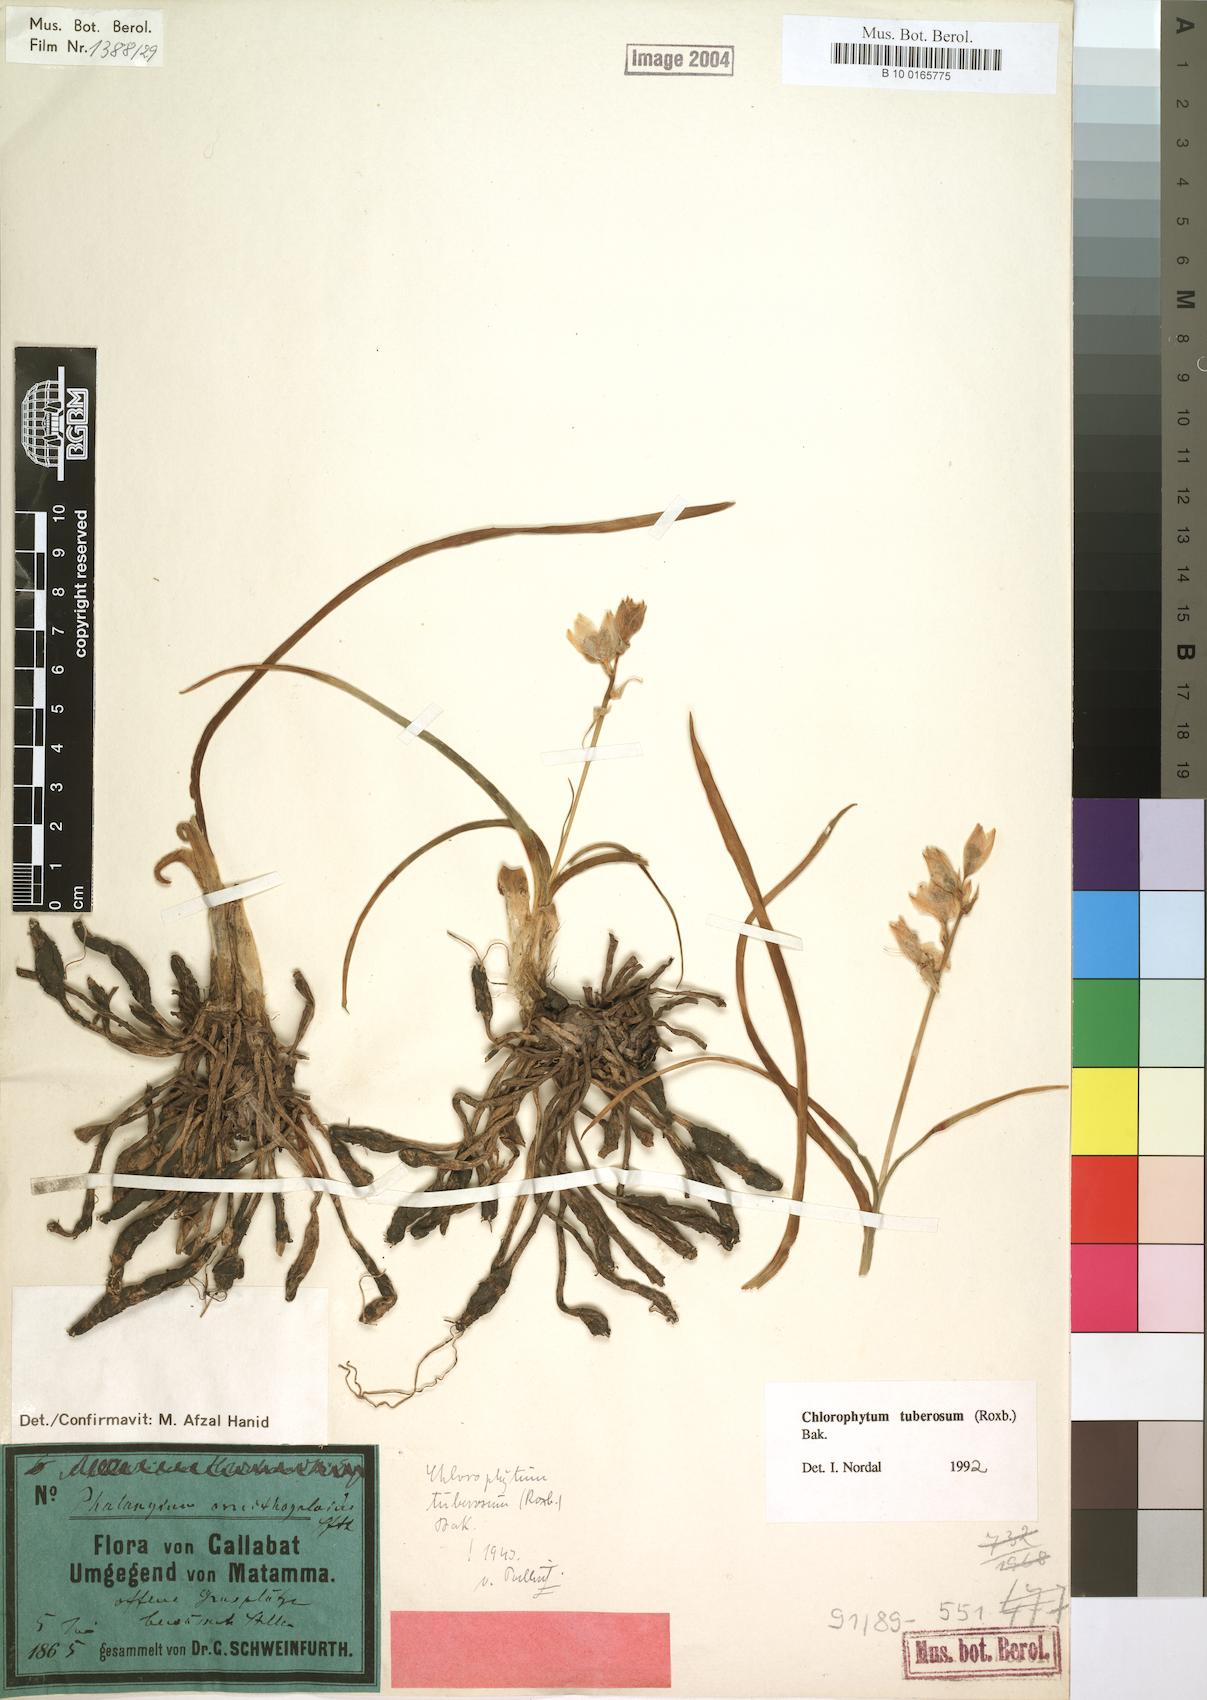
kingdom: Plantae
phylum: Tracheophyta
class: Liliopsida
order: Asparagales
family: Asparagaceae
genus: Chlorophytum
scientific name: Chlorophytum tuberosum
